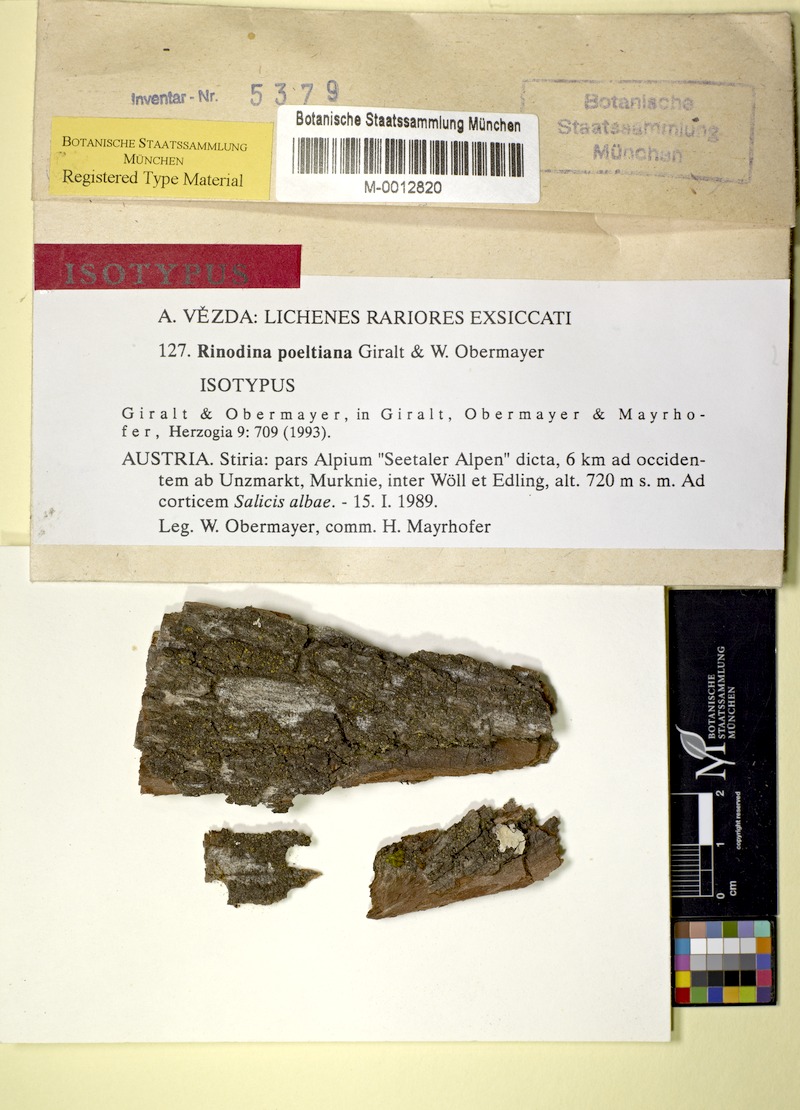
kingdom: Fungi
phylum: Ascomycota
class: Lecanoromycetes
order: Caliciales
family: Physciaceae
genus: Rinodina
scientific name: Rinodina poeltiana
